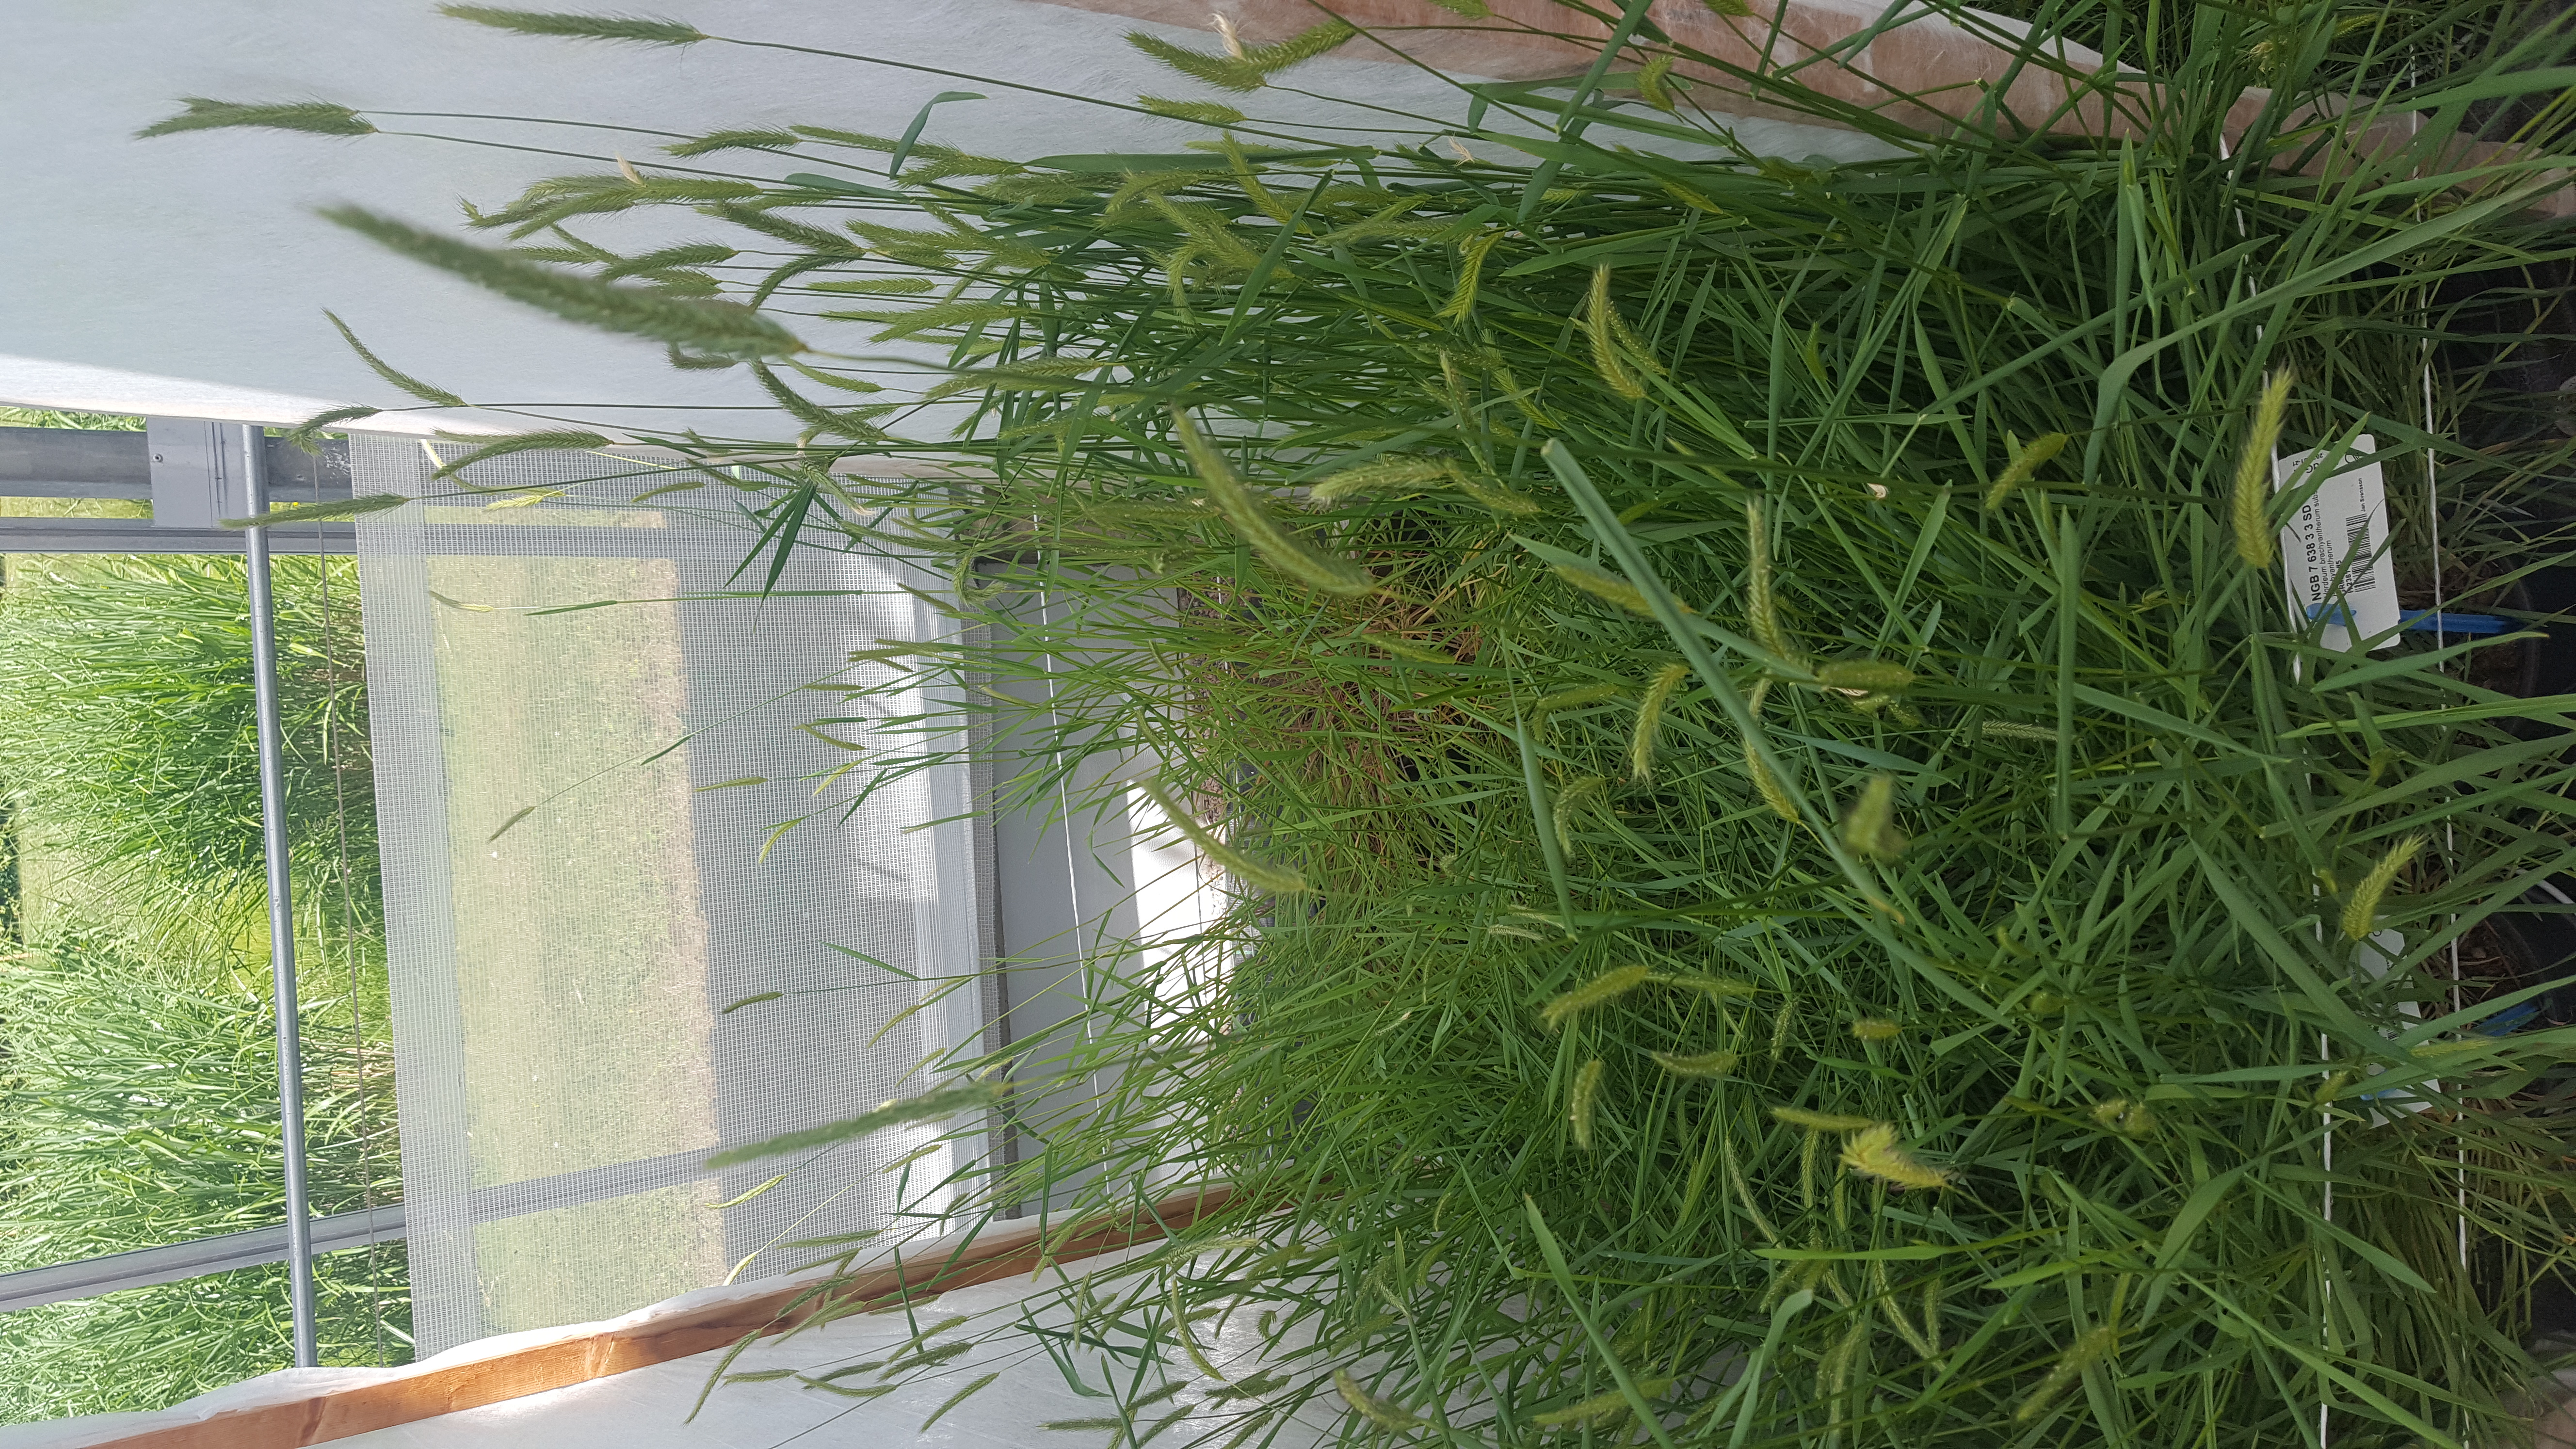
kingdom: Plantae
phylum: Tracheophyta
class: Liliopsida
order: Poales
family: Poaceae
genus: Hordeum
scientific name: Hordeum brachyantherum
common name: Meadow barley
